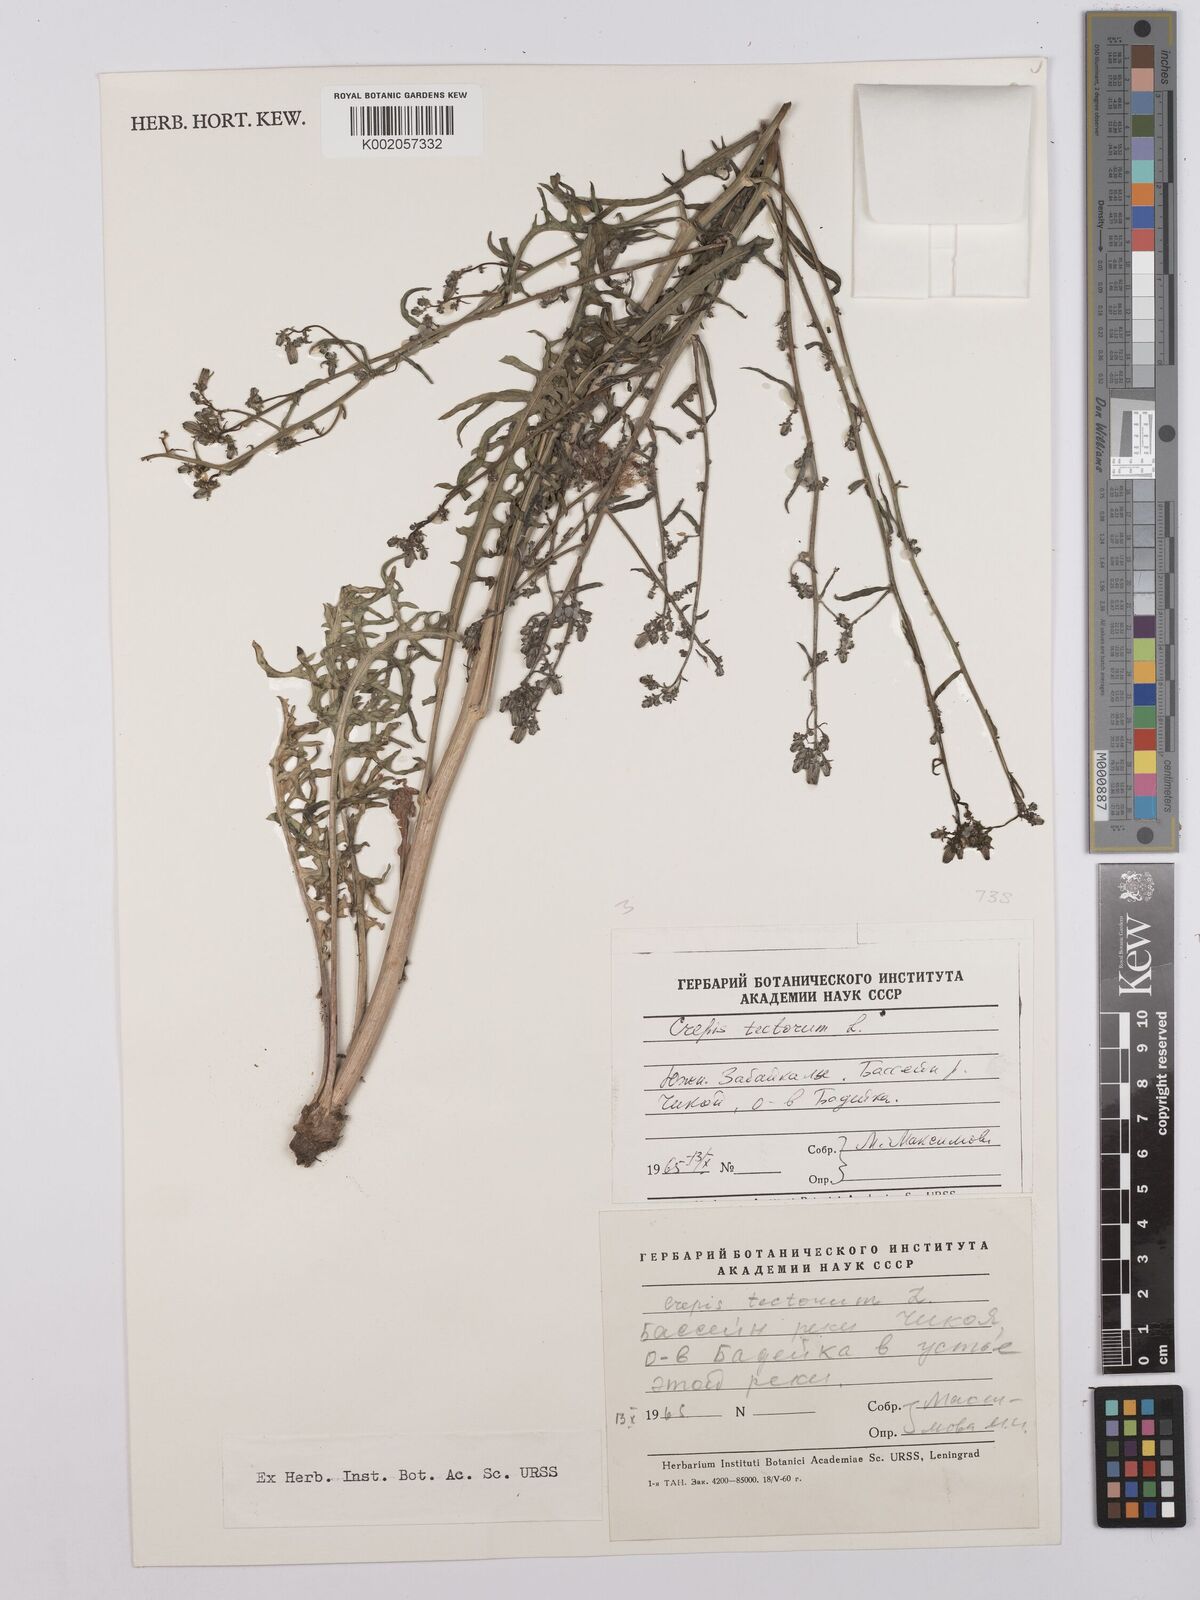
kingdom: Plantae
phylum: Tracheophyta
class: Magnoliopsida
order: Asterales
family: Asteraceae
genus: Crepis
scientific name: Crepis tectorum
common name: Narrow-leaved hawk's-beard
